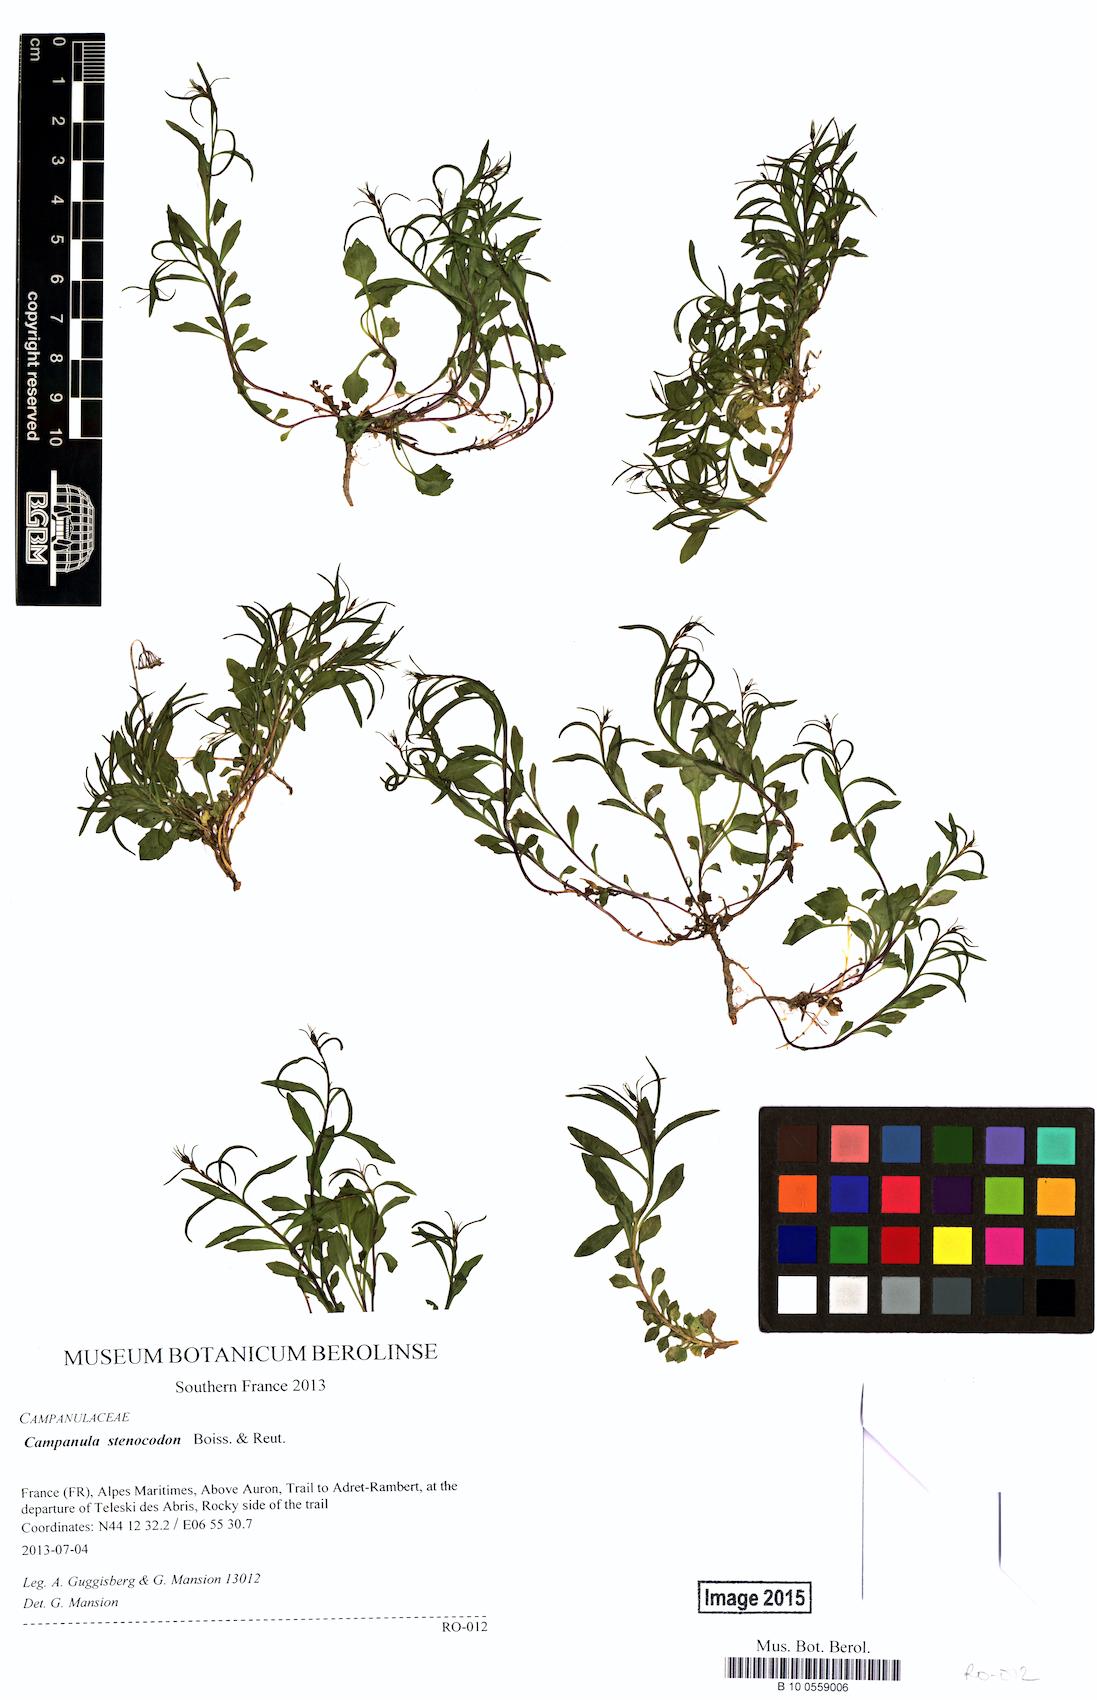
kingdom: Plantae
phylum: Tracheophyta
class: Magnoliopsida
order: Asterales
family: Campanulaceae
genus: Campanula
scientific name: Campanula stenocodon
